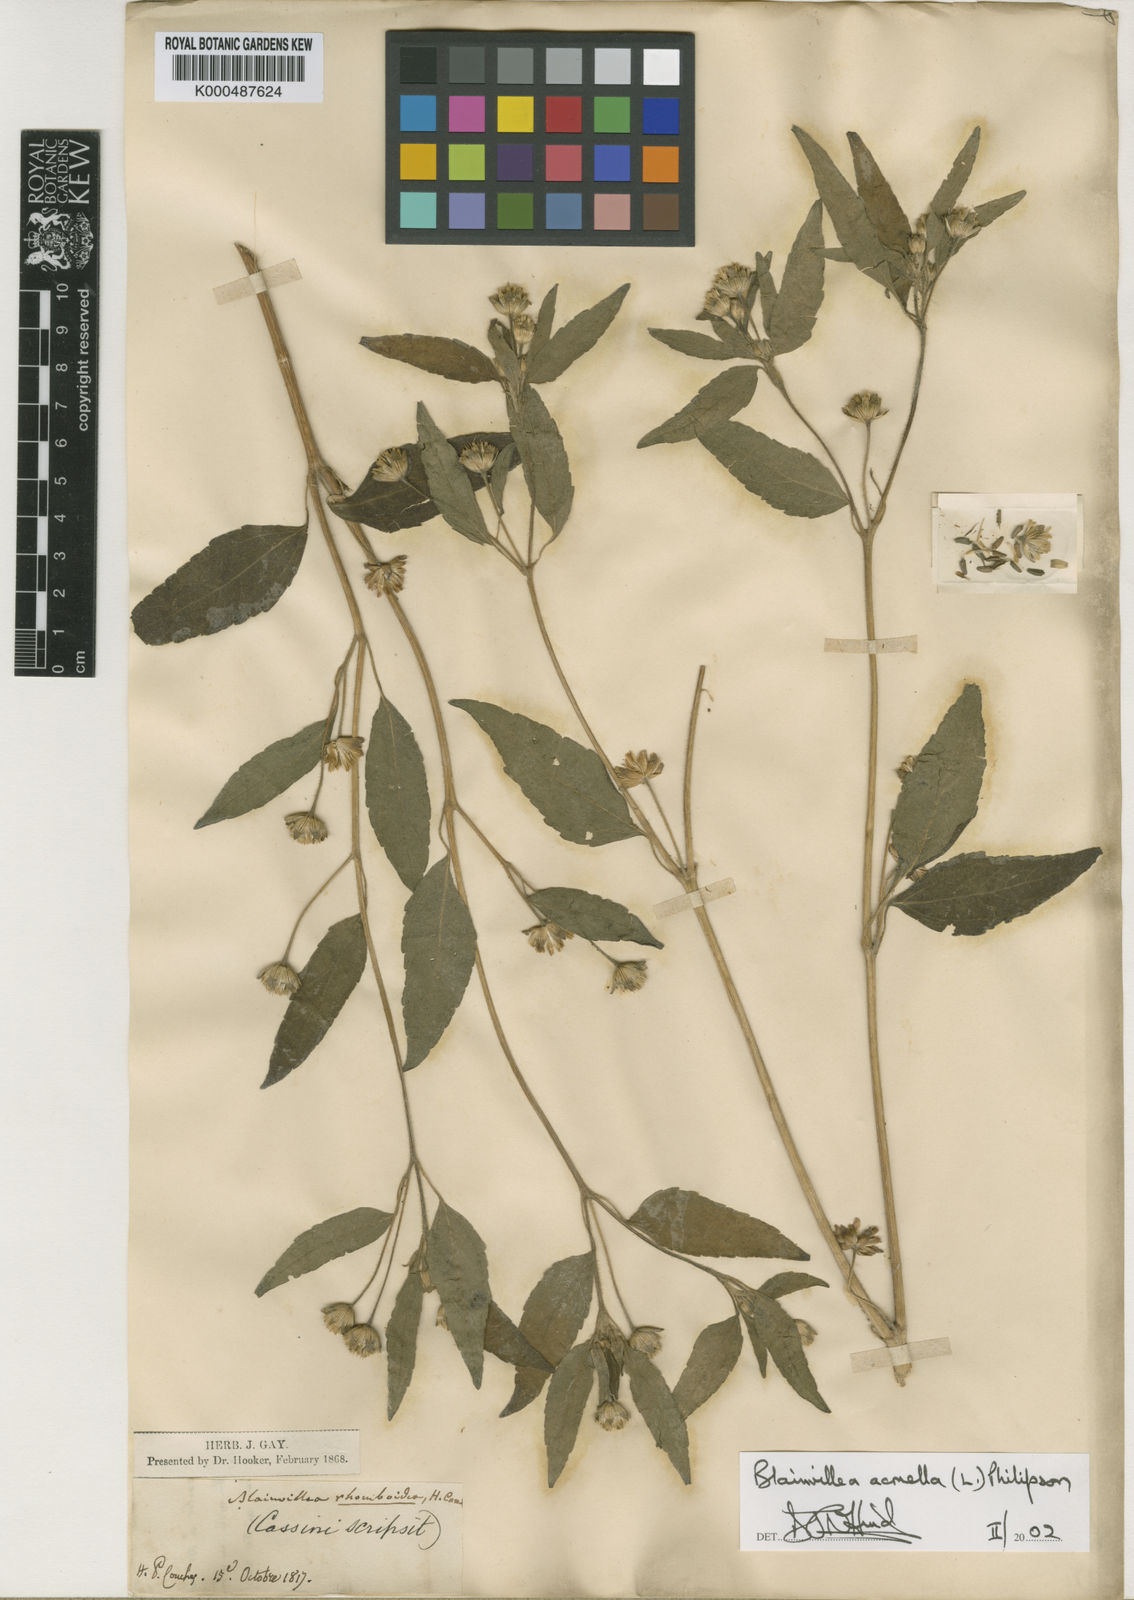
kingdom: Plantae
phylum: Tracheophyta
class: Magnoliopsida
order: Asterales
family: Asteraceae
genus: Blainvillea
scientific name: Blainvillea acmella
